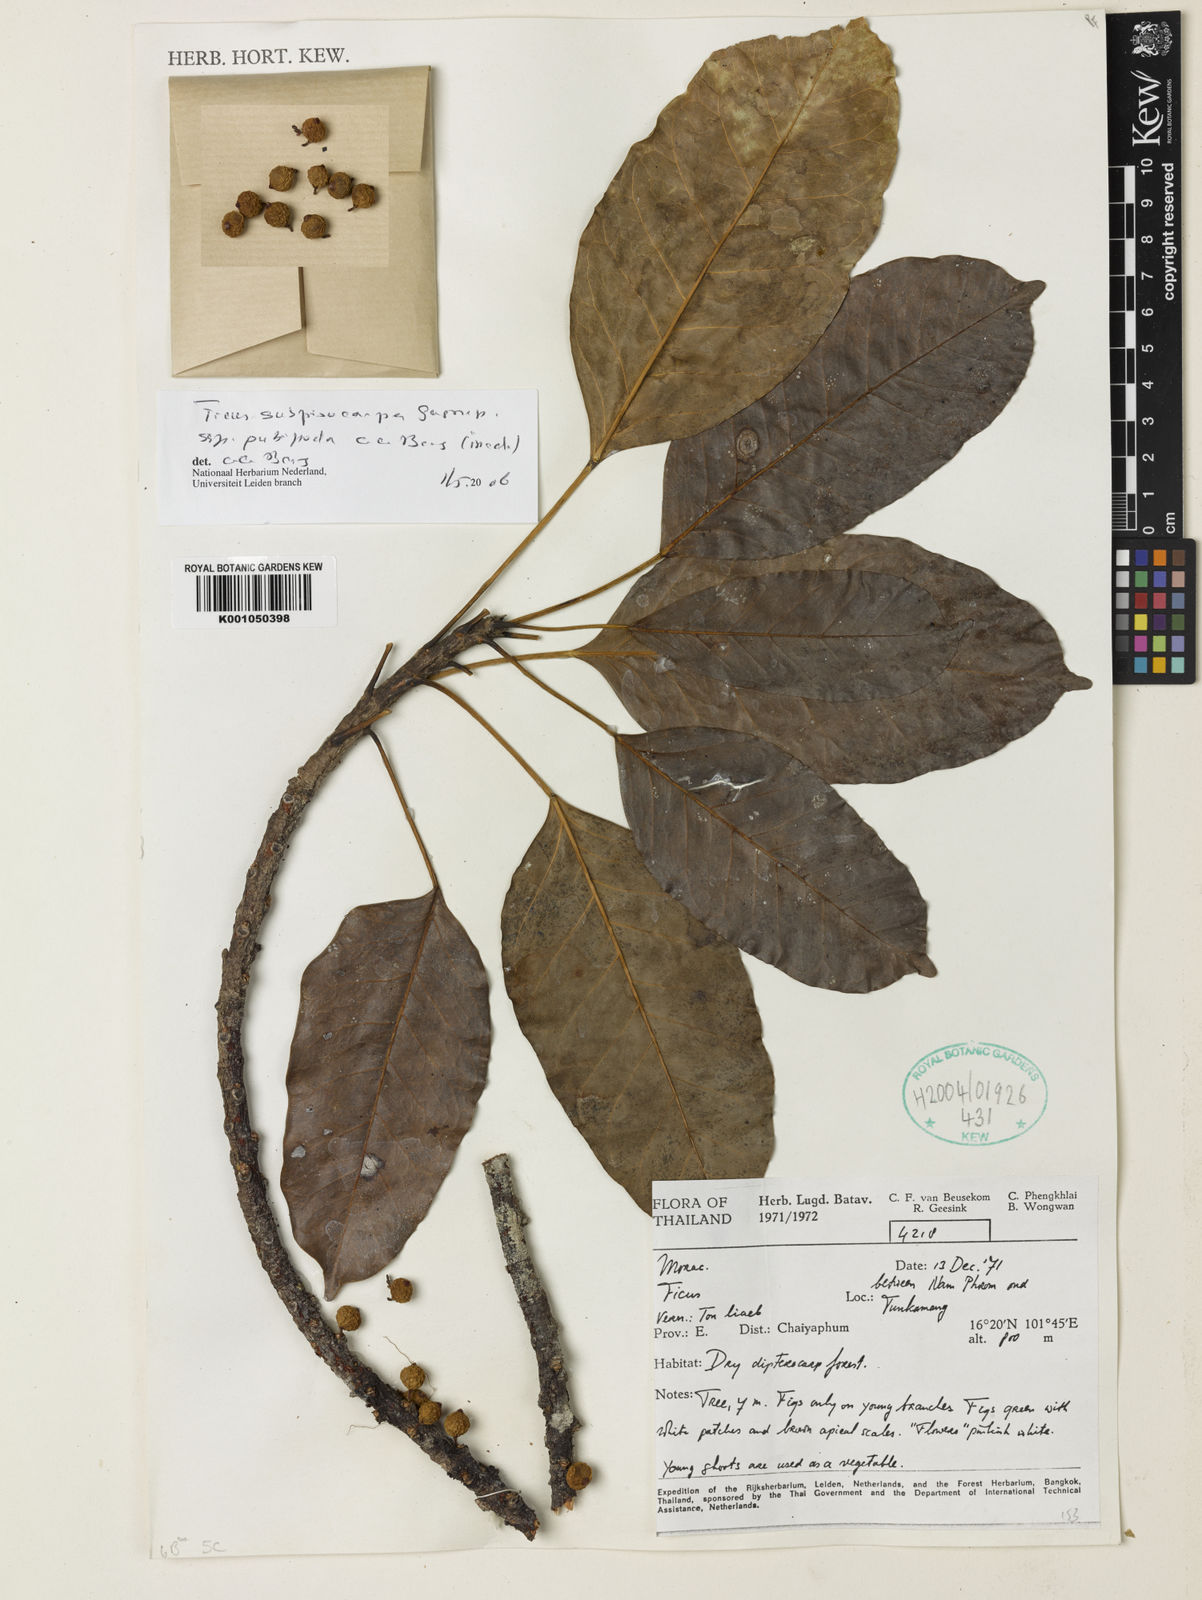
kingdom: Plantae
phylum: Tracheophyta
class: Magnoliopsida
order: Rosales
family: Moraceae
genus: Ficus
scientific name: Ficus subpisocarpa
